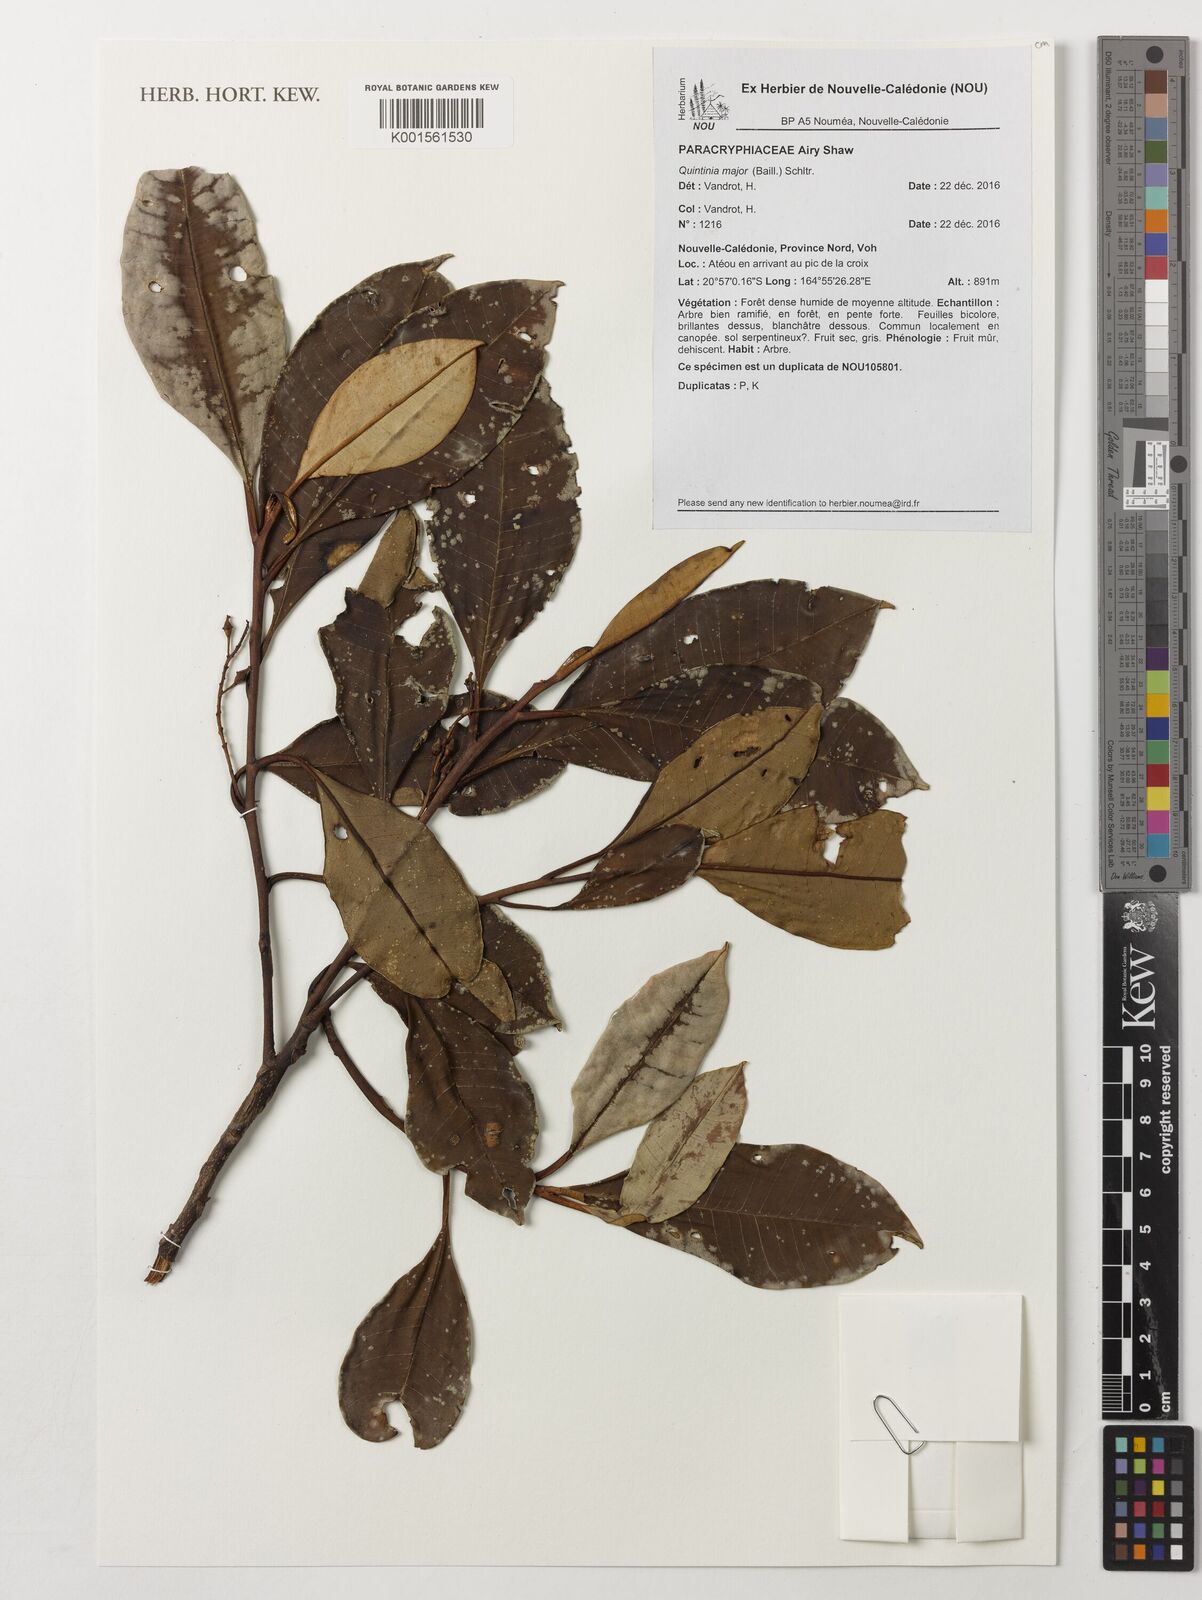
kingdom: Plantae
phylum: Tracheophyta
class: Magnoliopsida
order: Paracryphiales
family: Paracryphiaceae
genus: Quintinia
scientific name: Quintinia major
